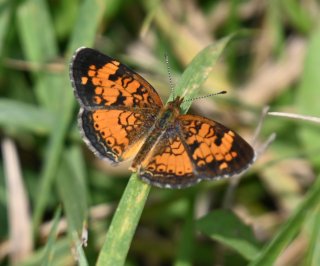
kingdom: Animalia
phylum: Arthropoda
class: Insecta
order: Lepidoptera
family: Nymphalidae
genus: Phyciodes
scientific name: Phyciodes tharos
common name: Northern Crescent
